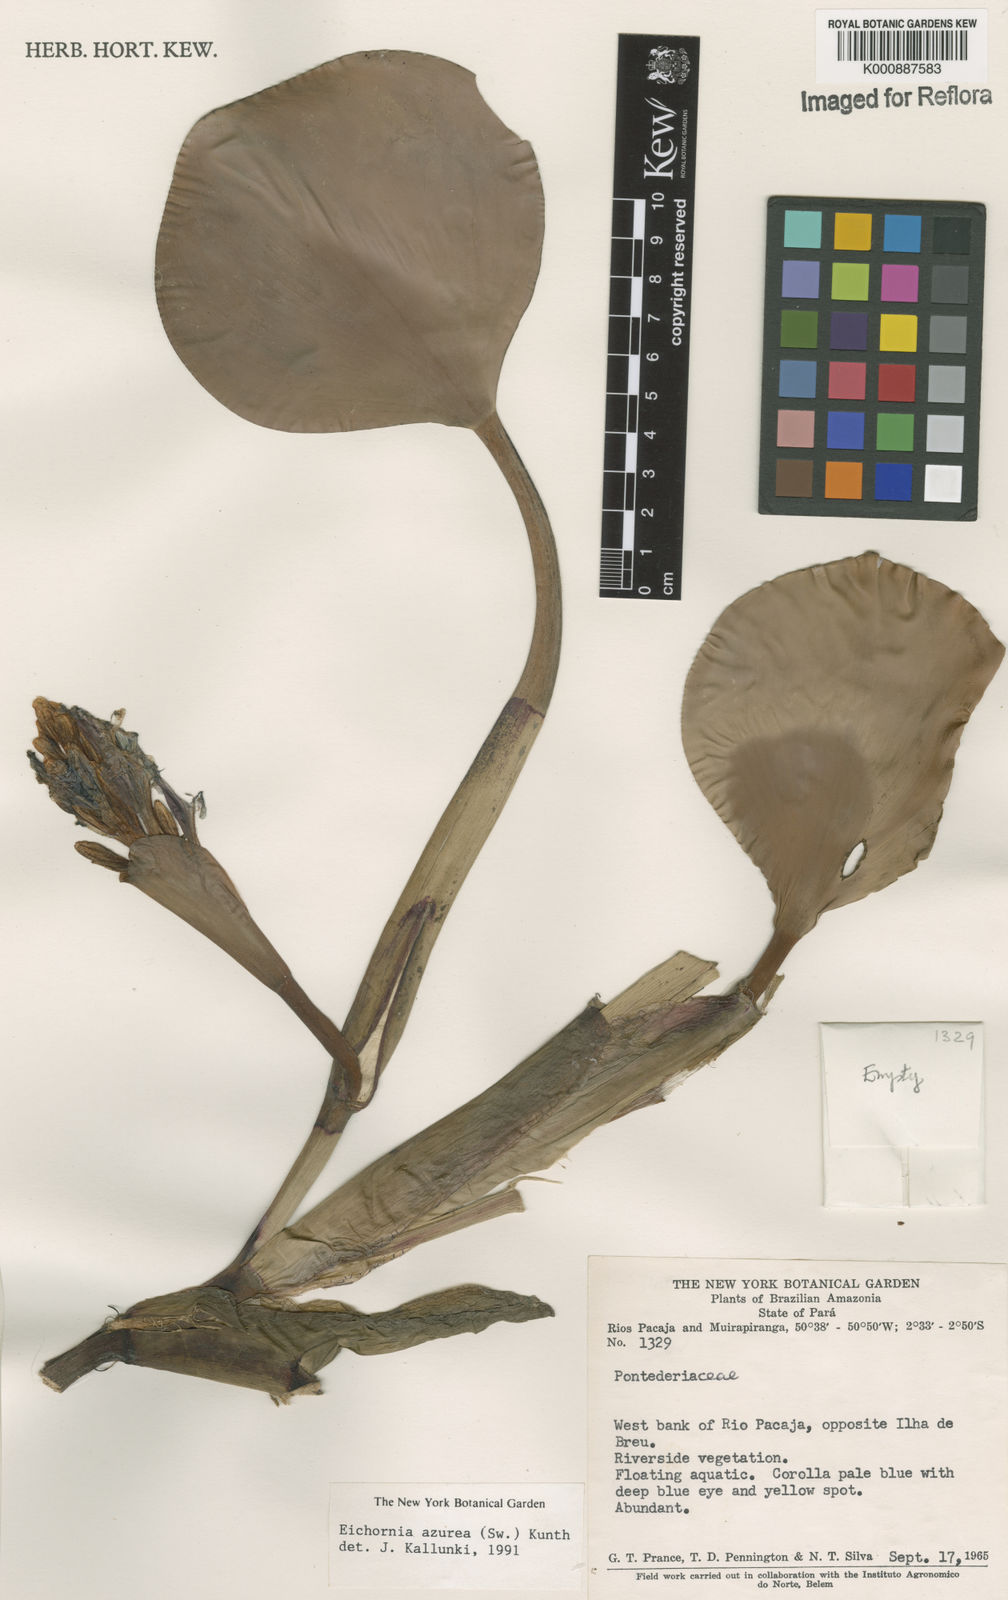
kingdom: Plantae
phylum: Tracheophyta
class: Liliopsida
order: Commelinales
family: Pontederiaceae
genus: Pontederia
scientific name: Pontederia azurea
